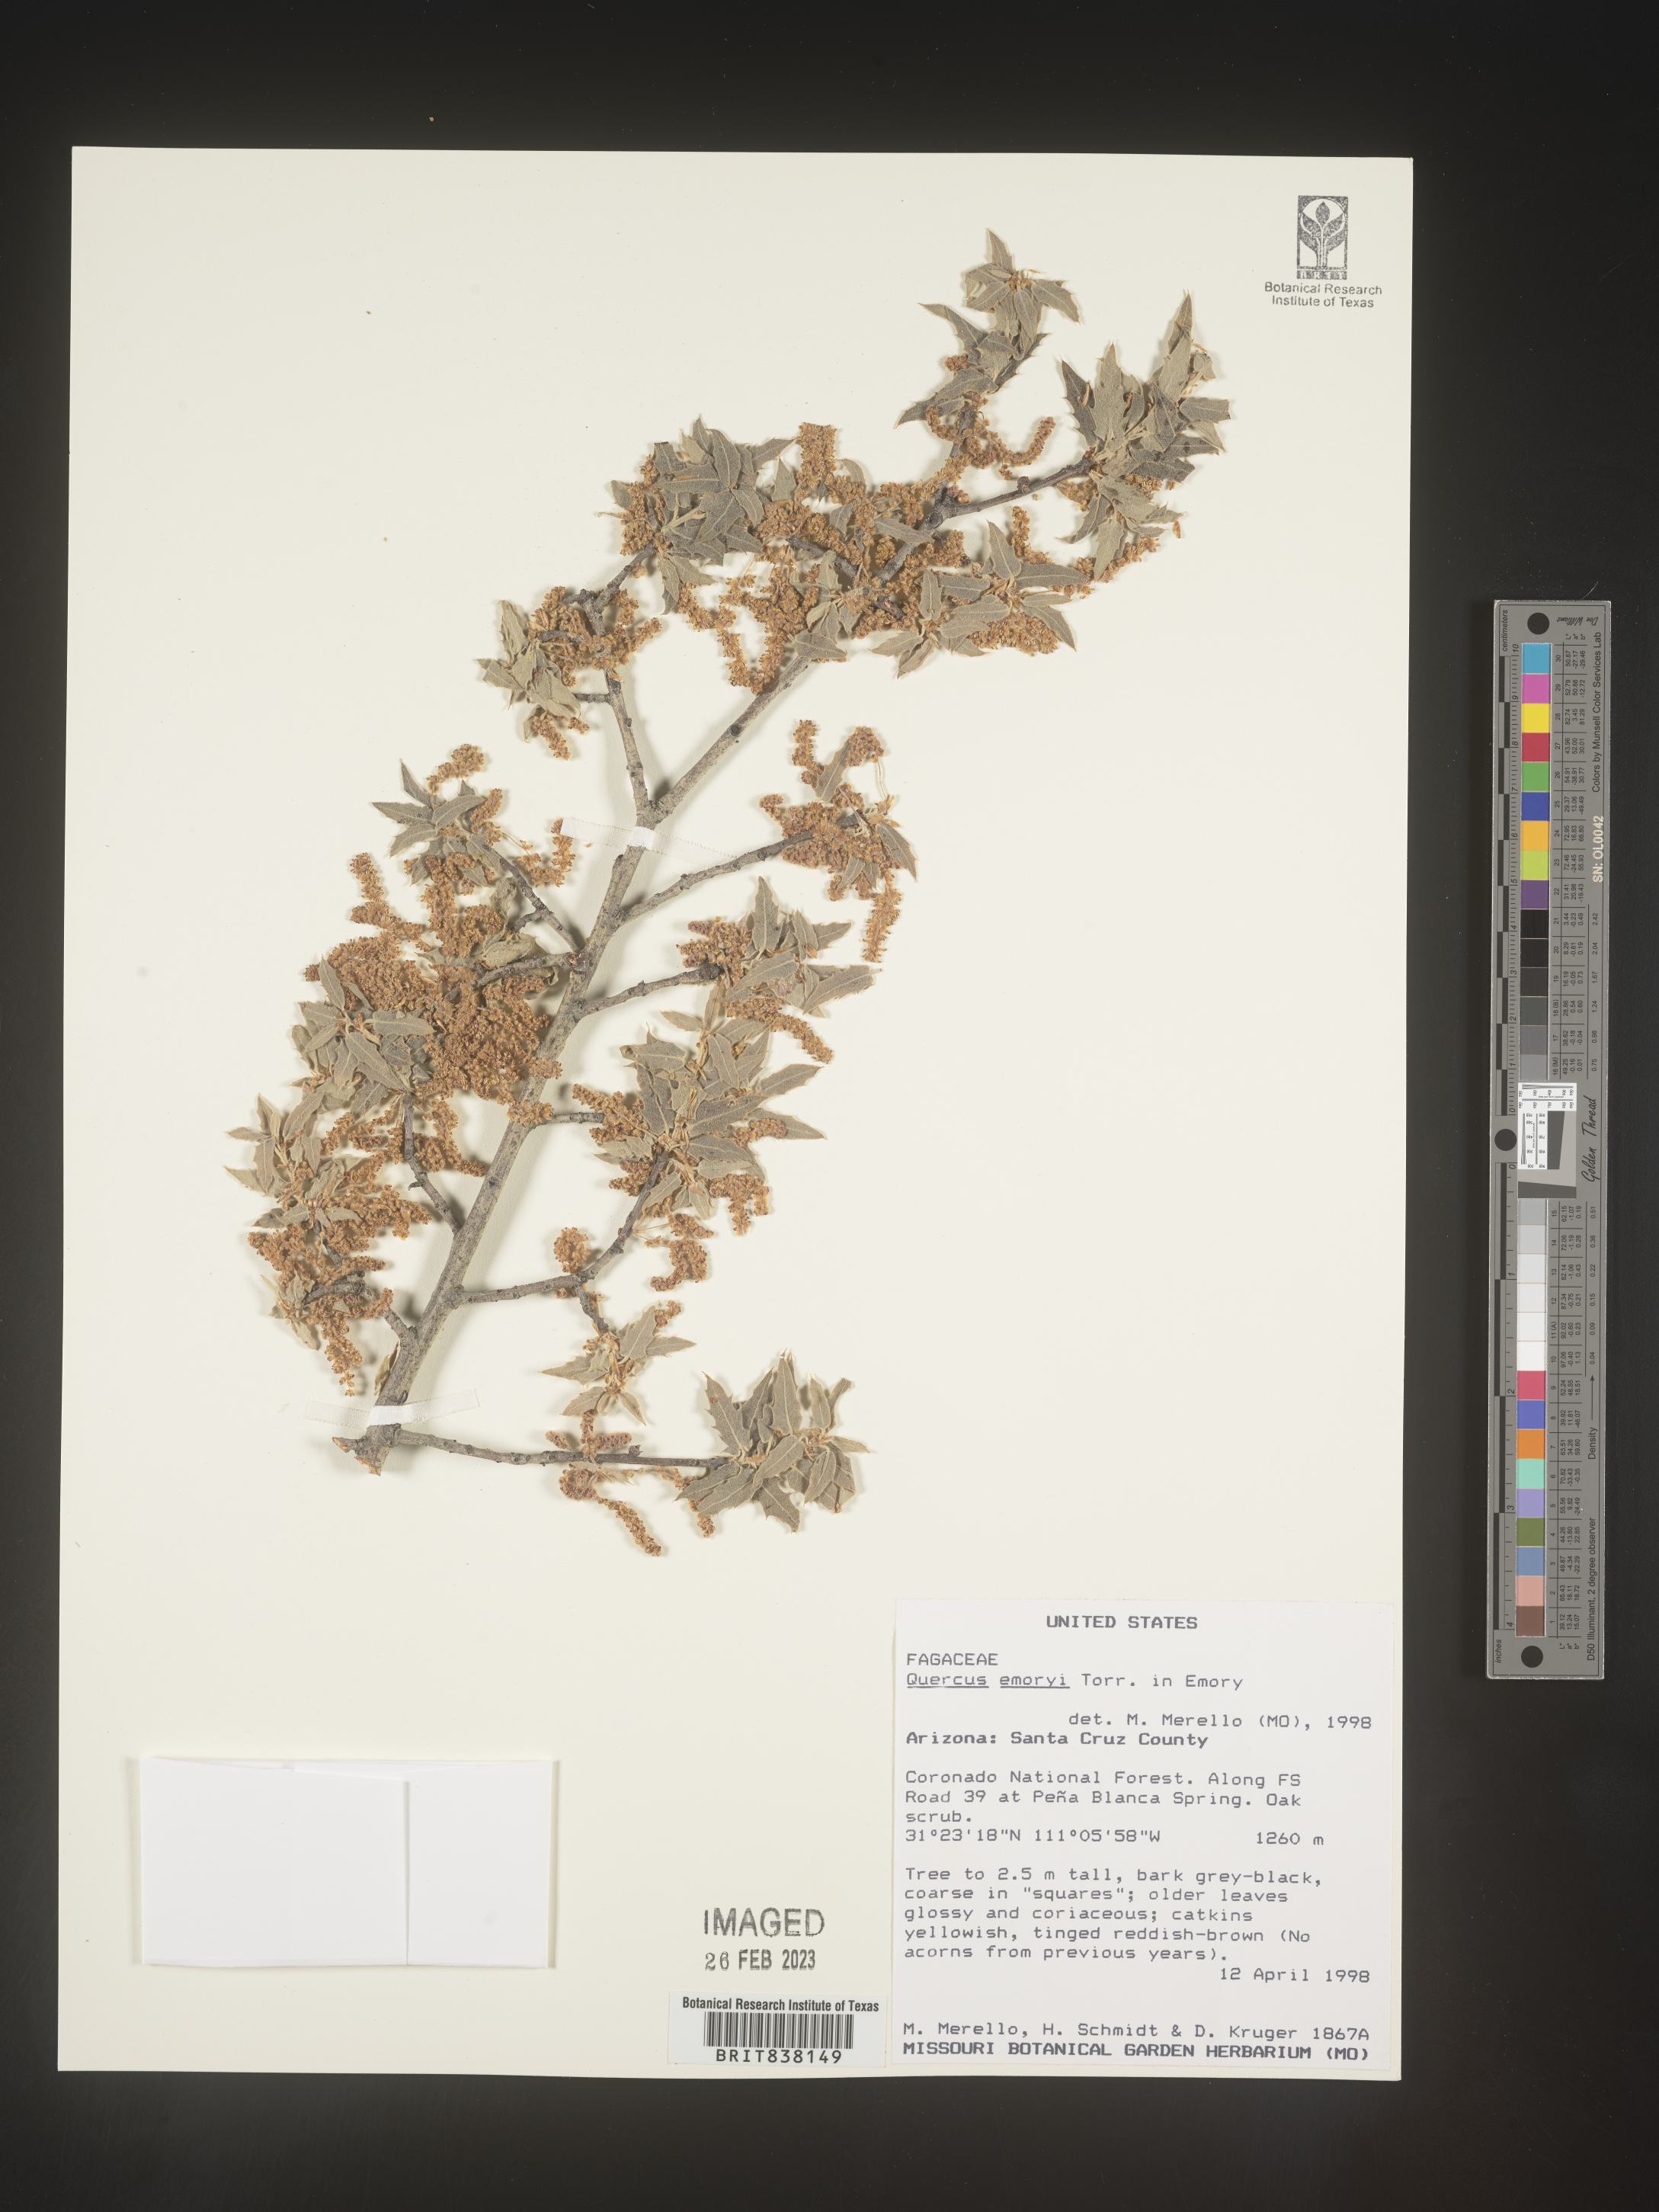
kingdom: Plantae
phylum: Tracheophyta
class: Magnoliopsida
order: Fagales
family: Fagaceae
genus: Quercus
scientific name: Quercus
